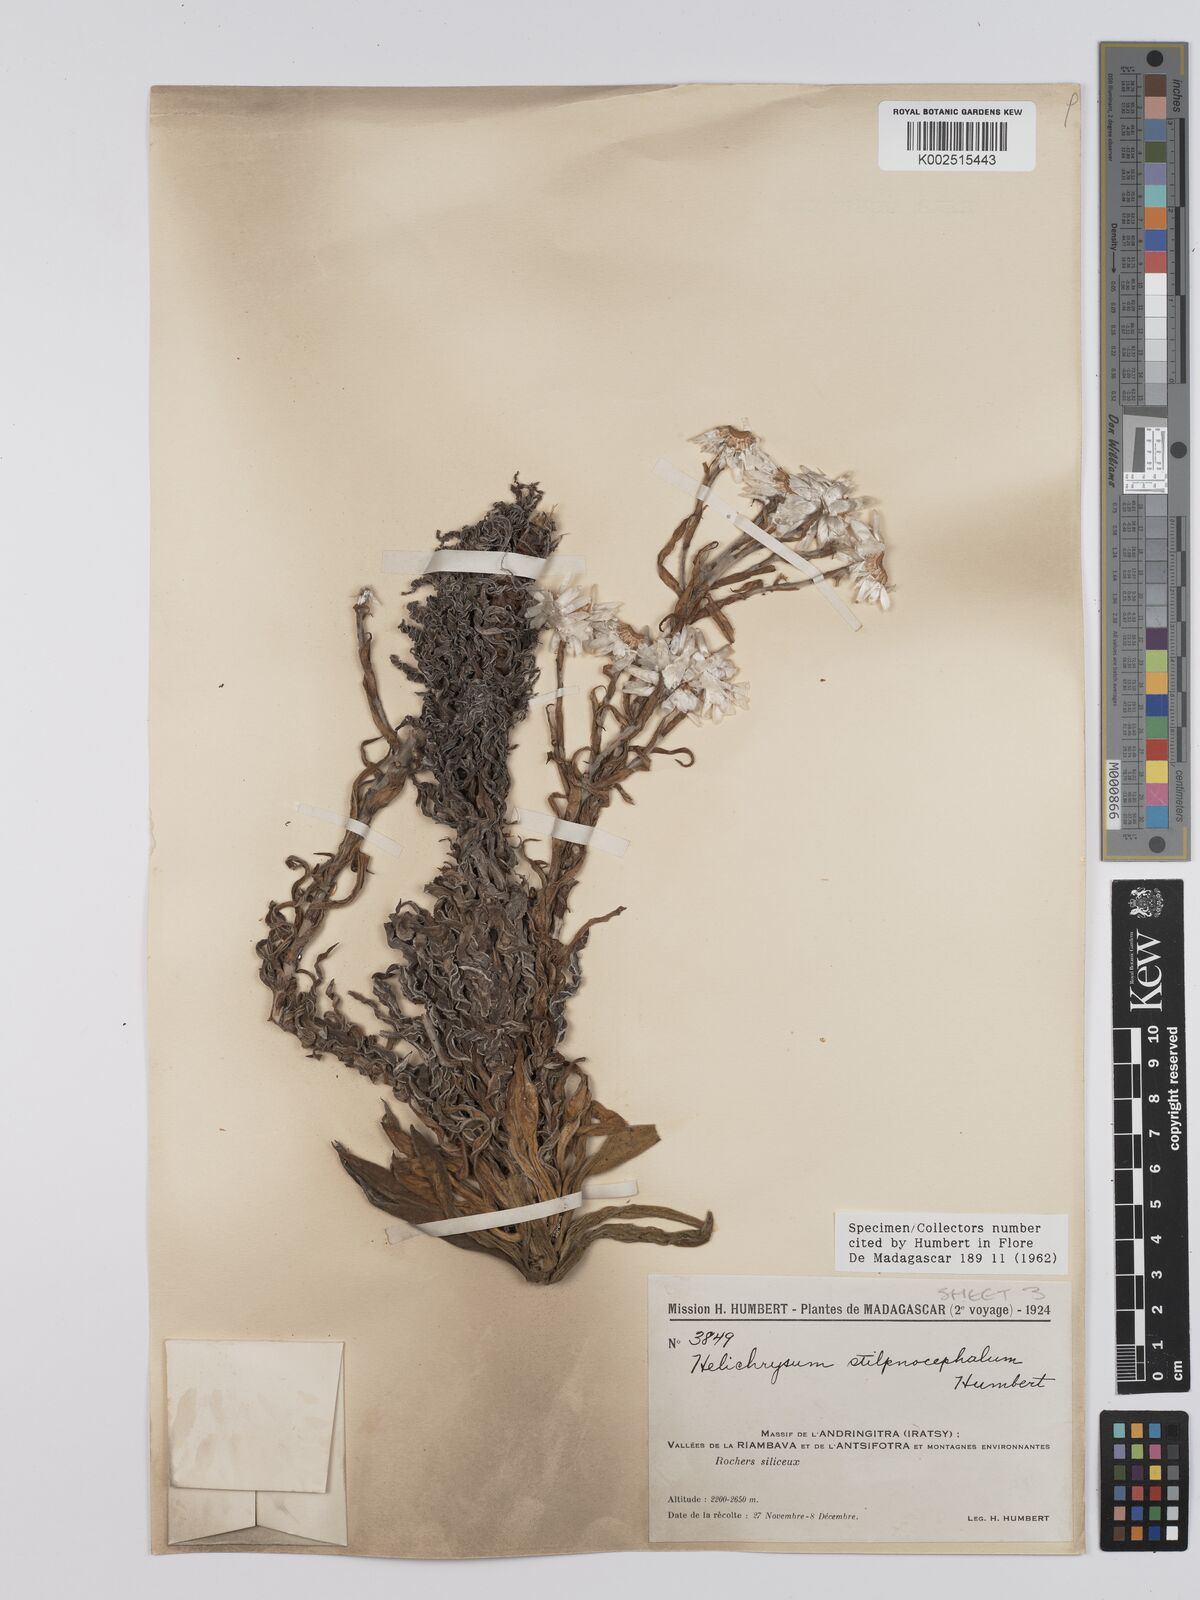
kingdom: Plantae
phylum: Tracheophyta
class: Magnoliopsida
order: Asterales
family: Asteraceae
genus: Helichrysum
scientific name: Helichrysum stilpnocephalum
